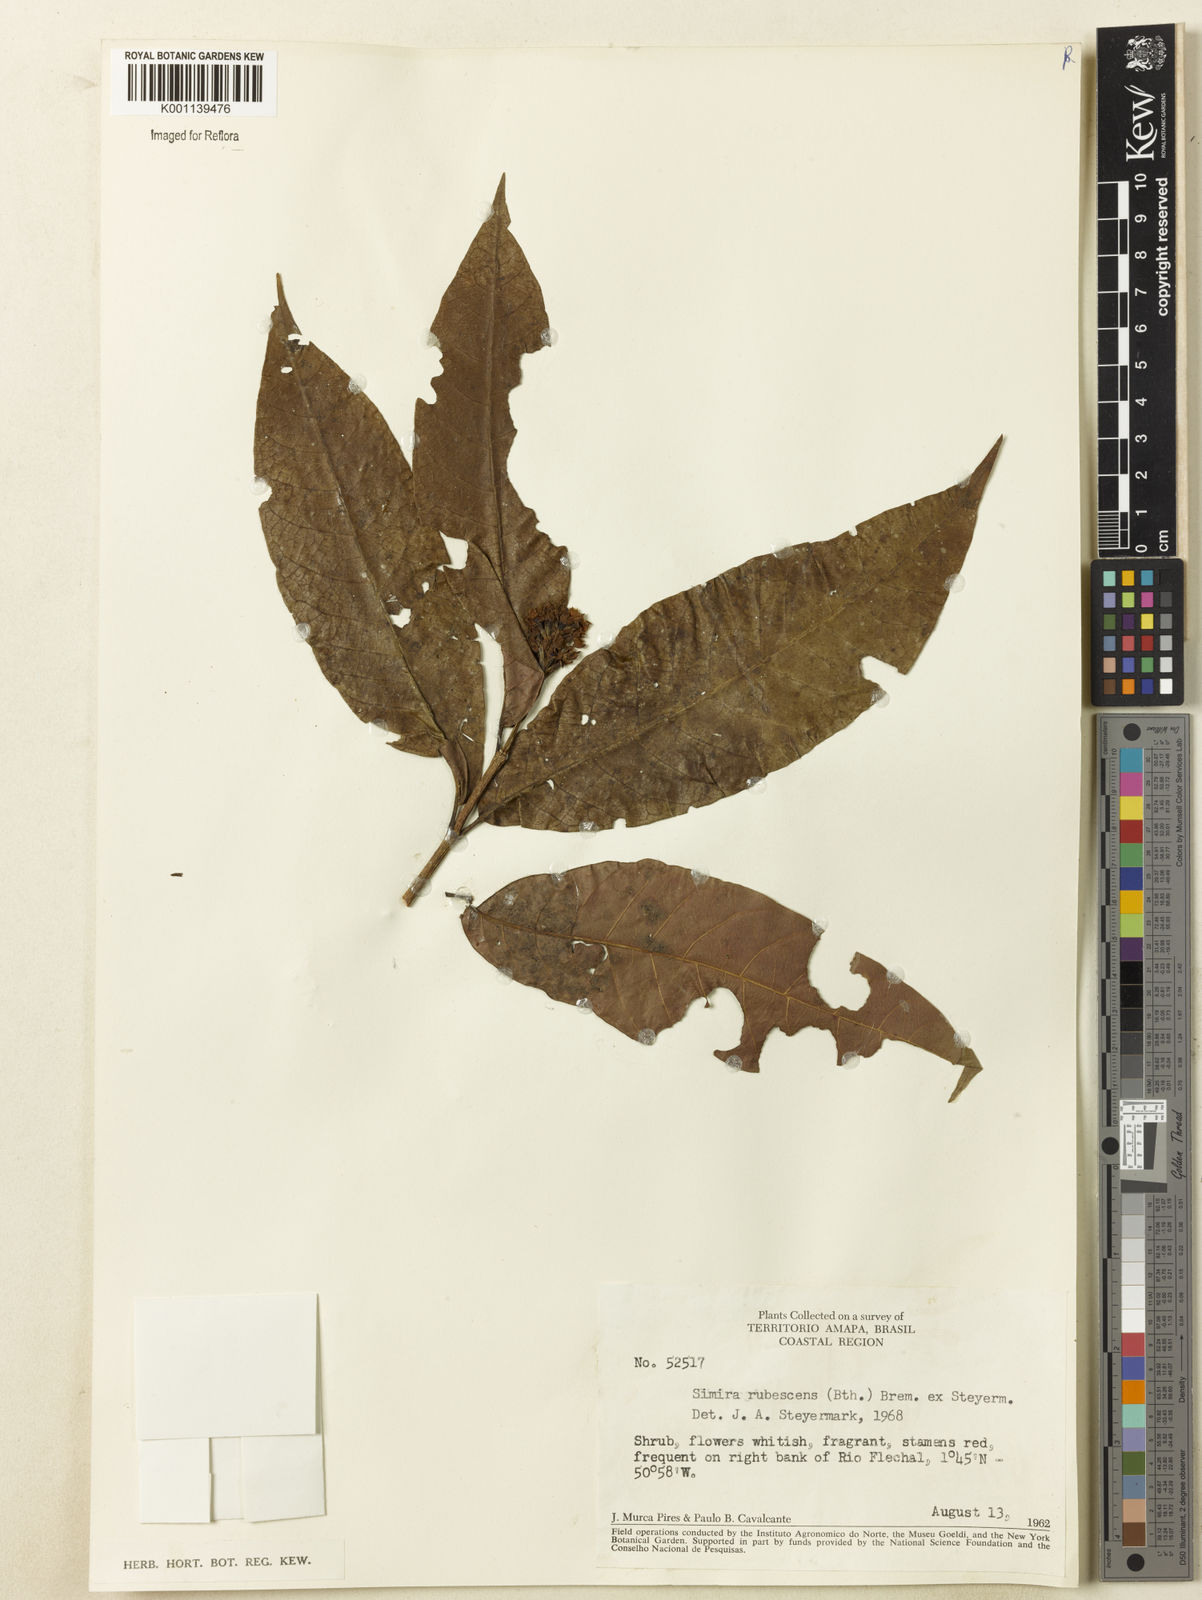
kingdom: Plantae
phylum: Tracheophyta
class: Magnoliopsida
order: Gentianales
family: Rubiaceae
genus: Simira
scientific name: Simira rubescens
